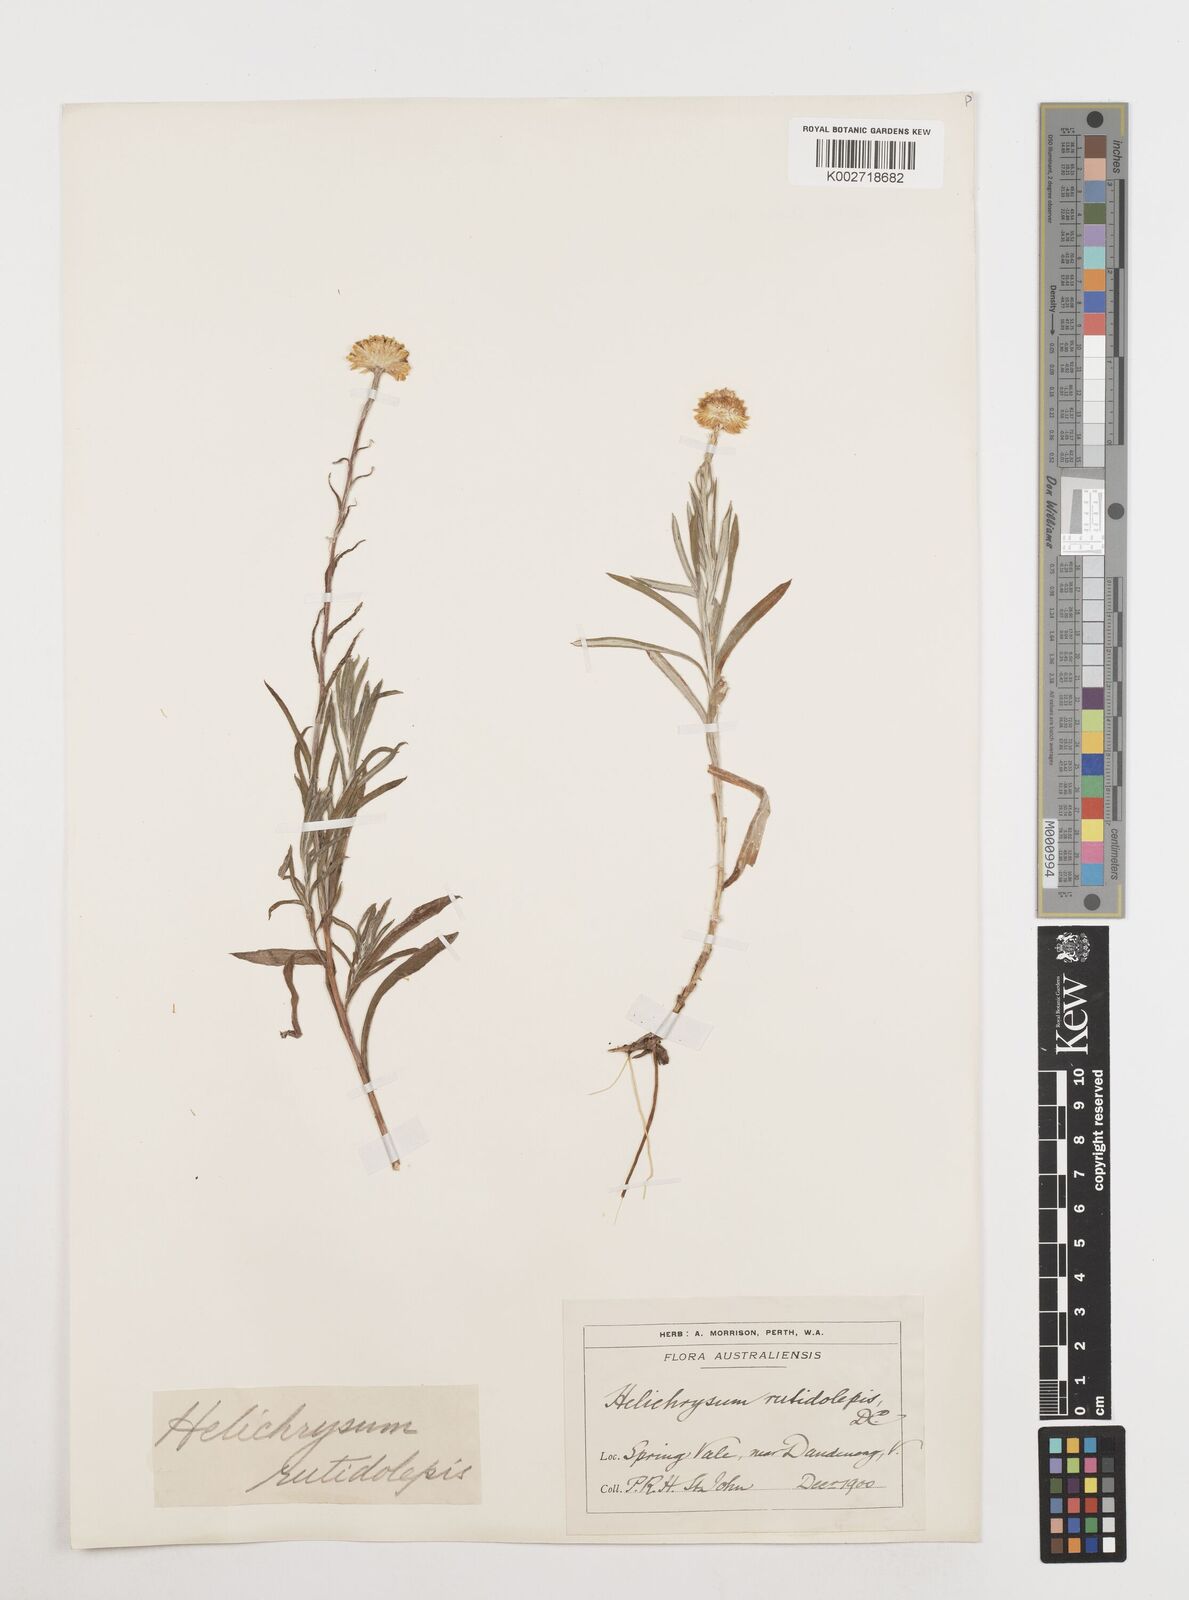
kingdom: Plantae
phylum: Tracheophyta
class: Magnoliopsida
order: Asterales
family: Asteraceae
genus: Coronidium
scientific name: Coronidium rutidolepis
